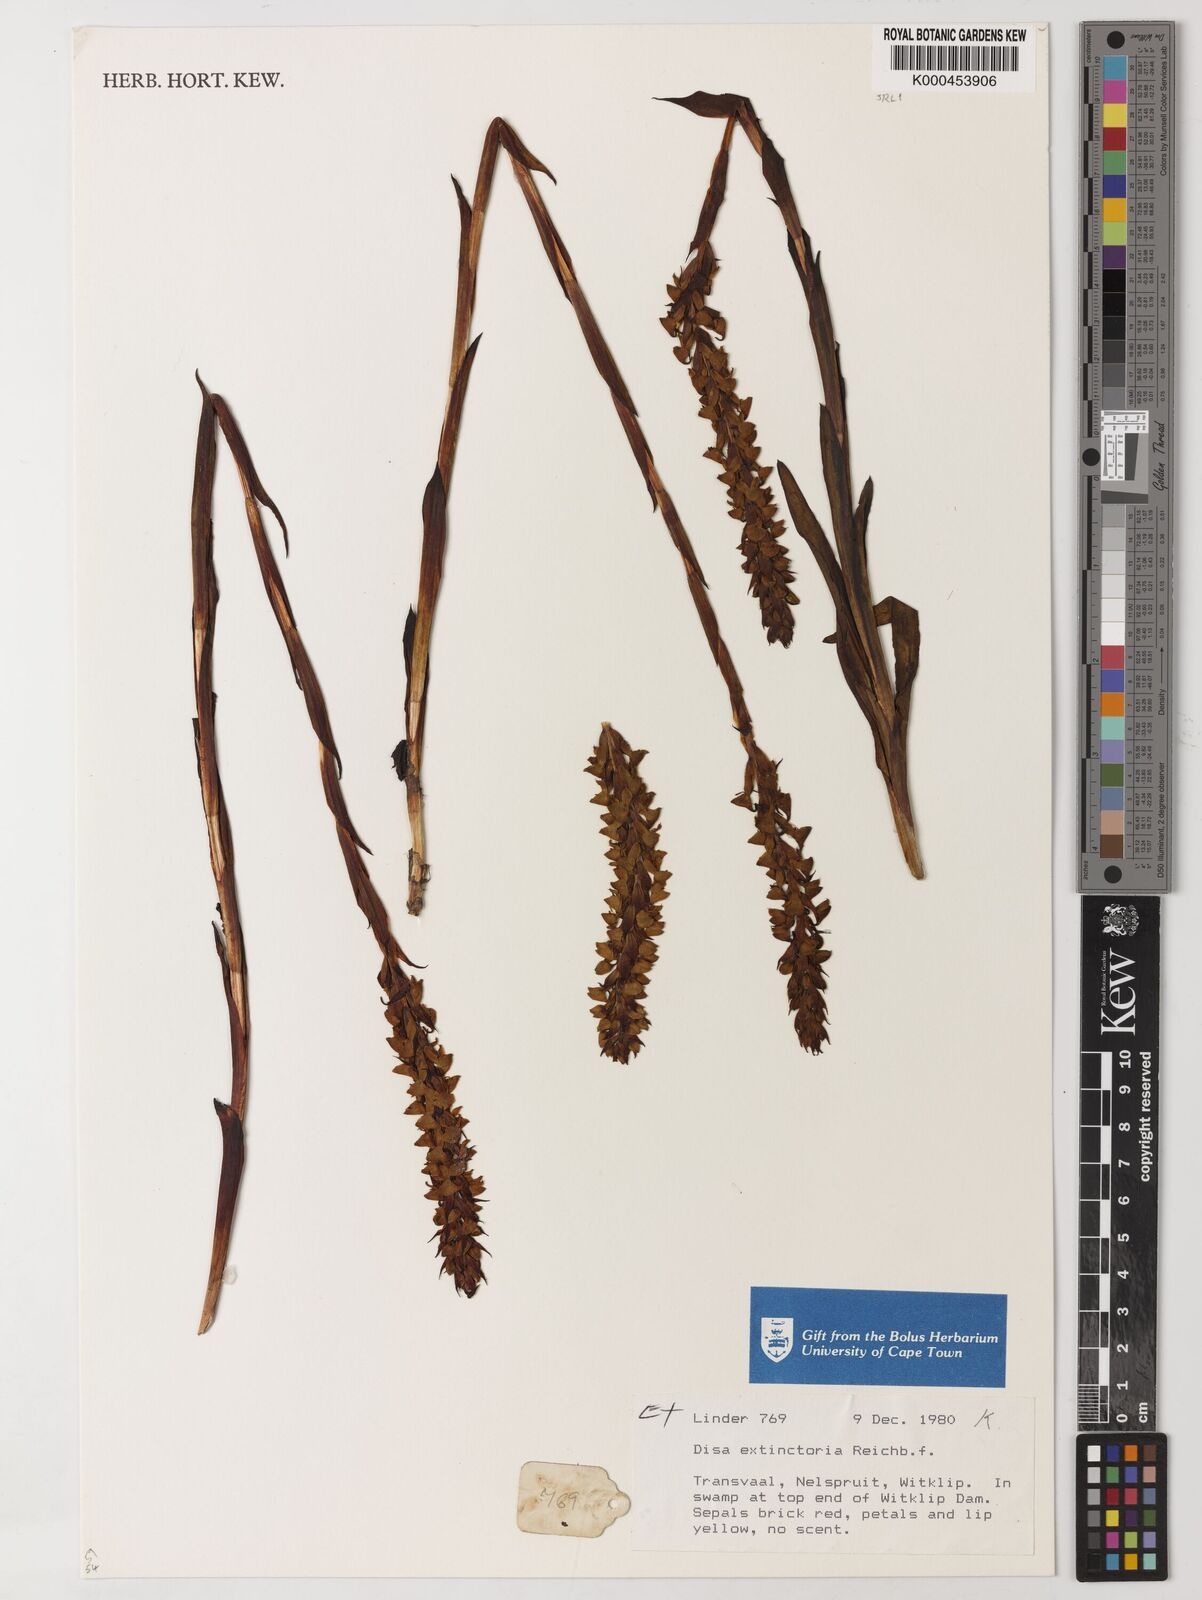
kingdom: Plantae
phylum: Tracheophyta
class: Liliopsida
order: Asparagales
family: Orchidaceae
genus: Disa
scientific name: Disa extinctoria
